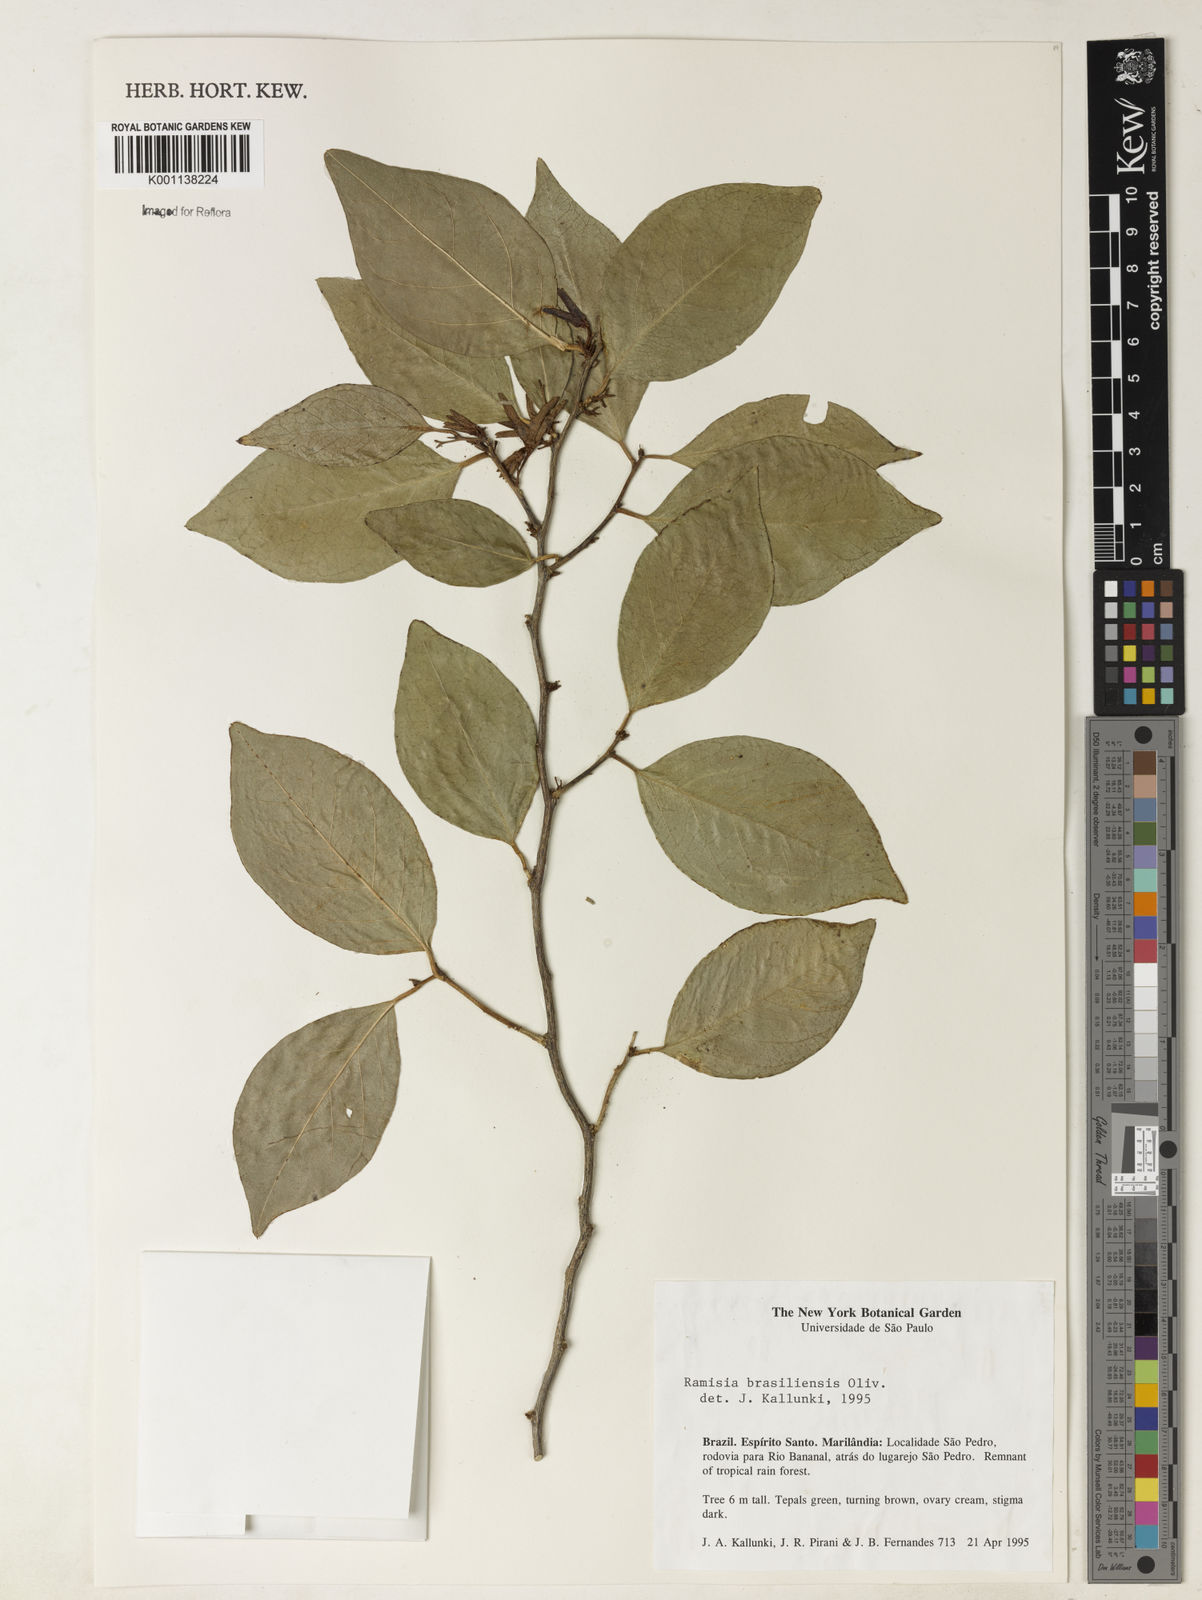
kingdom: Plantae
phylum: Tracheophyta
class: Magnoliopsida
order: Caryophyllales
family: Nyctaginaceae
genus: Ramisia
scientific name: Ramisia brasiliensis
